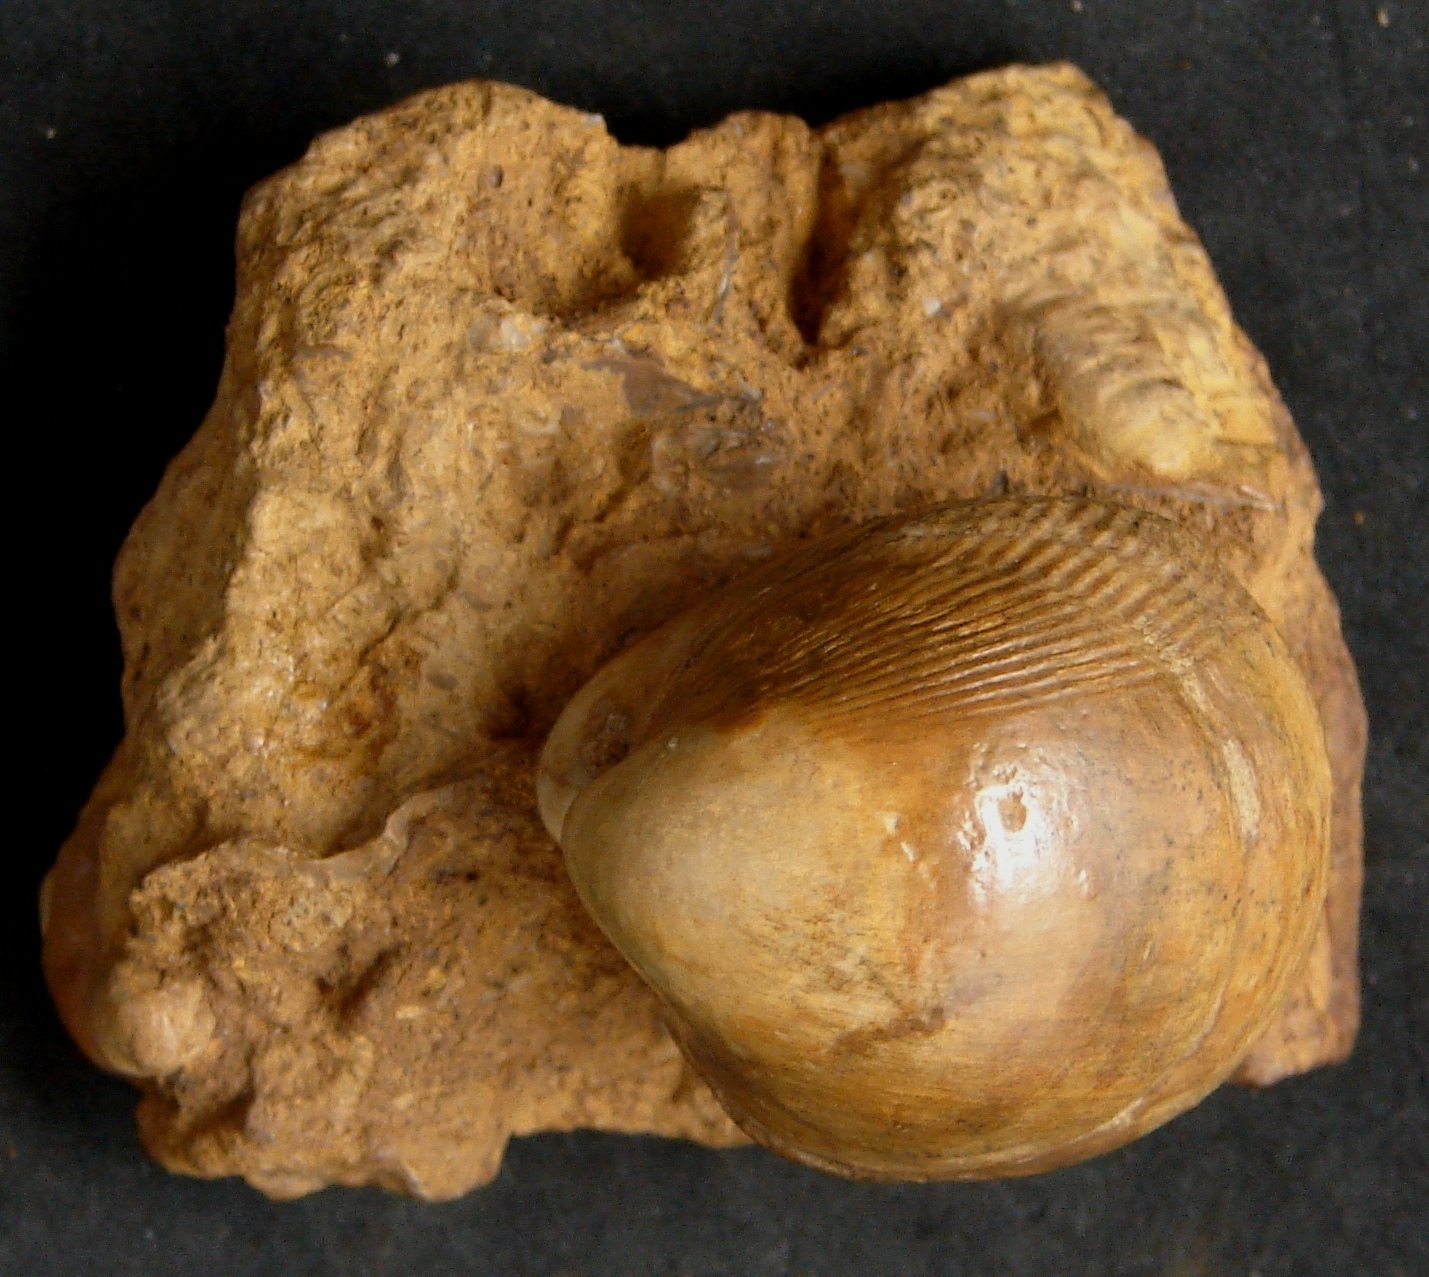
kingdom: Animalia
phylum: Mollusca
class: Bivalvia
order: Cardiida
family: Cardiidae
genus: Protocardia
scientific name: Protocardia striatula
